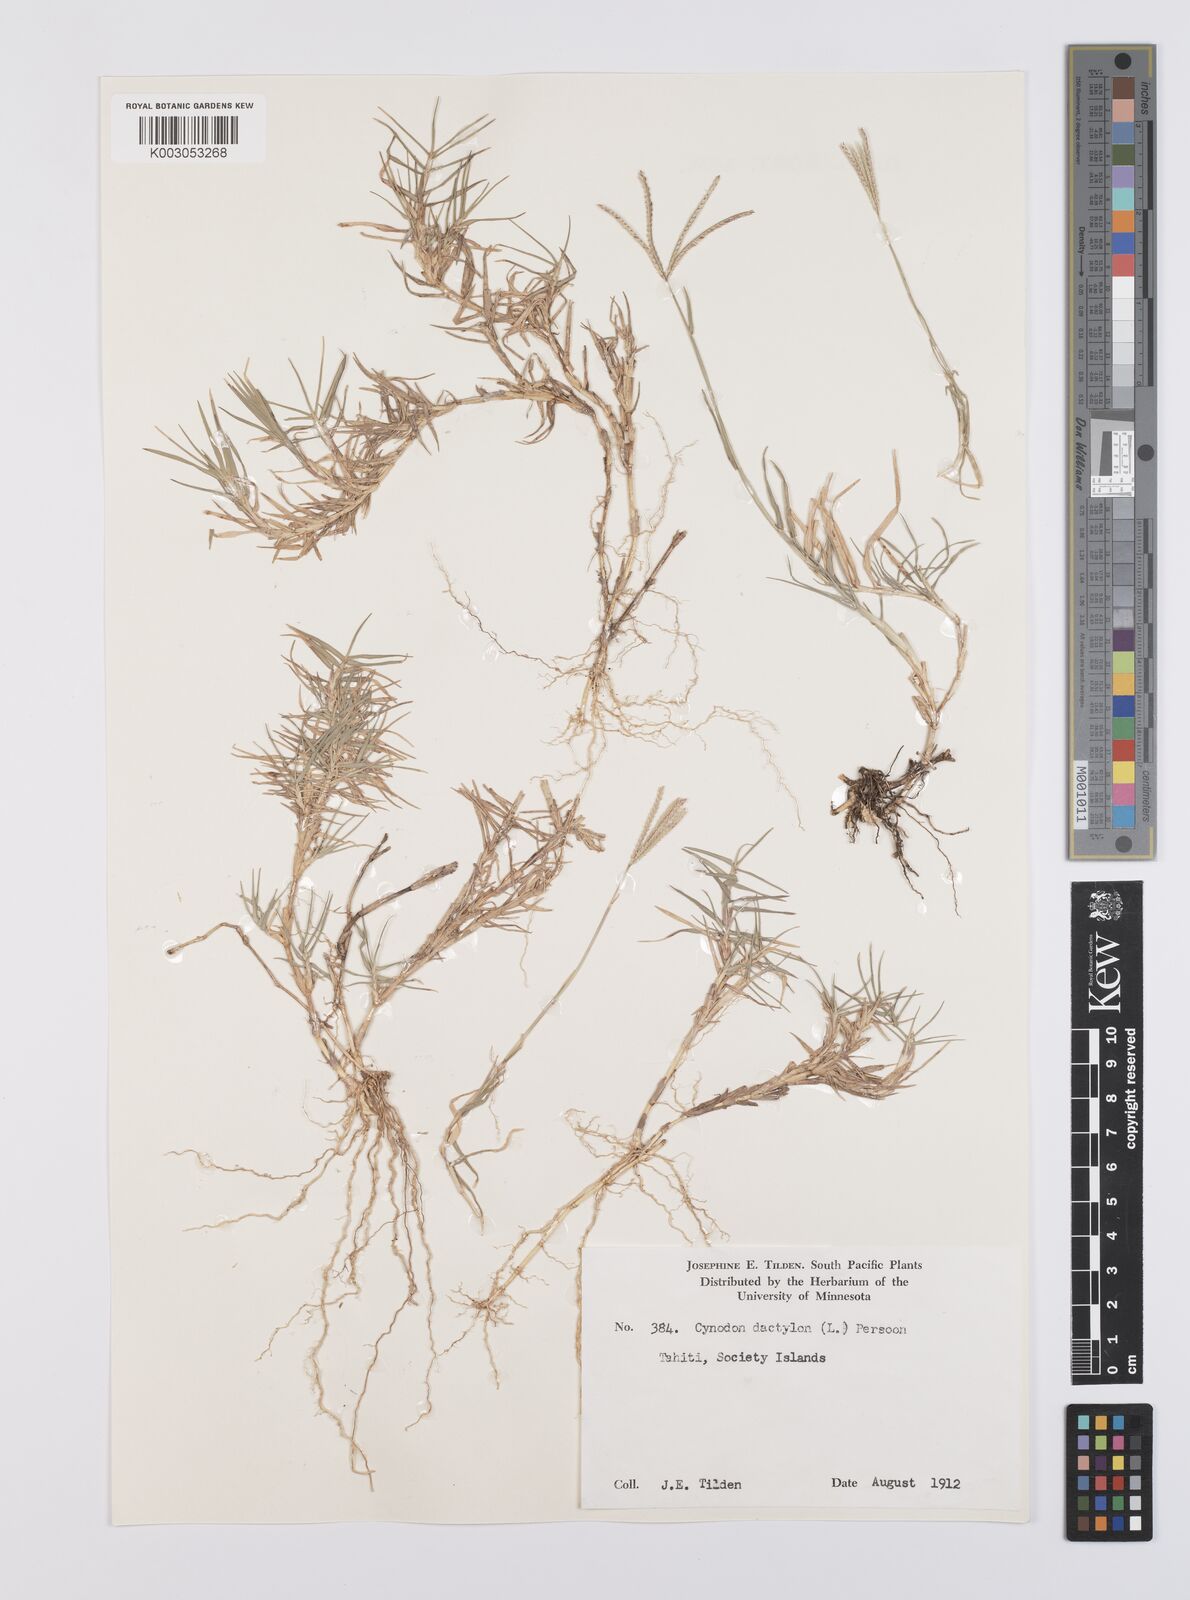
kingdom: Plantae
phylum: Tracheophyta
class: Liliopsida
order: Poales
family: Poaceae
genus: Cynodon
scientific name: Cynodon dactylon
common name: Bermuda grass
